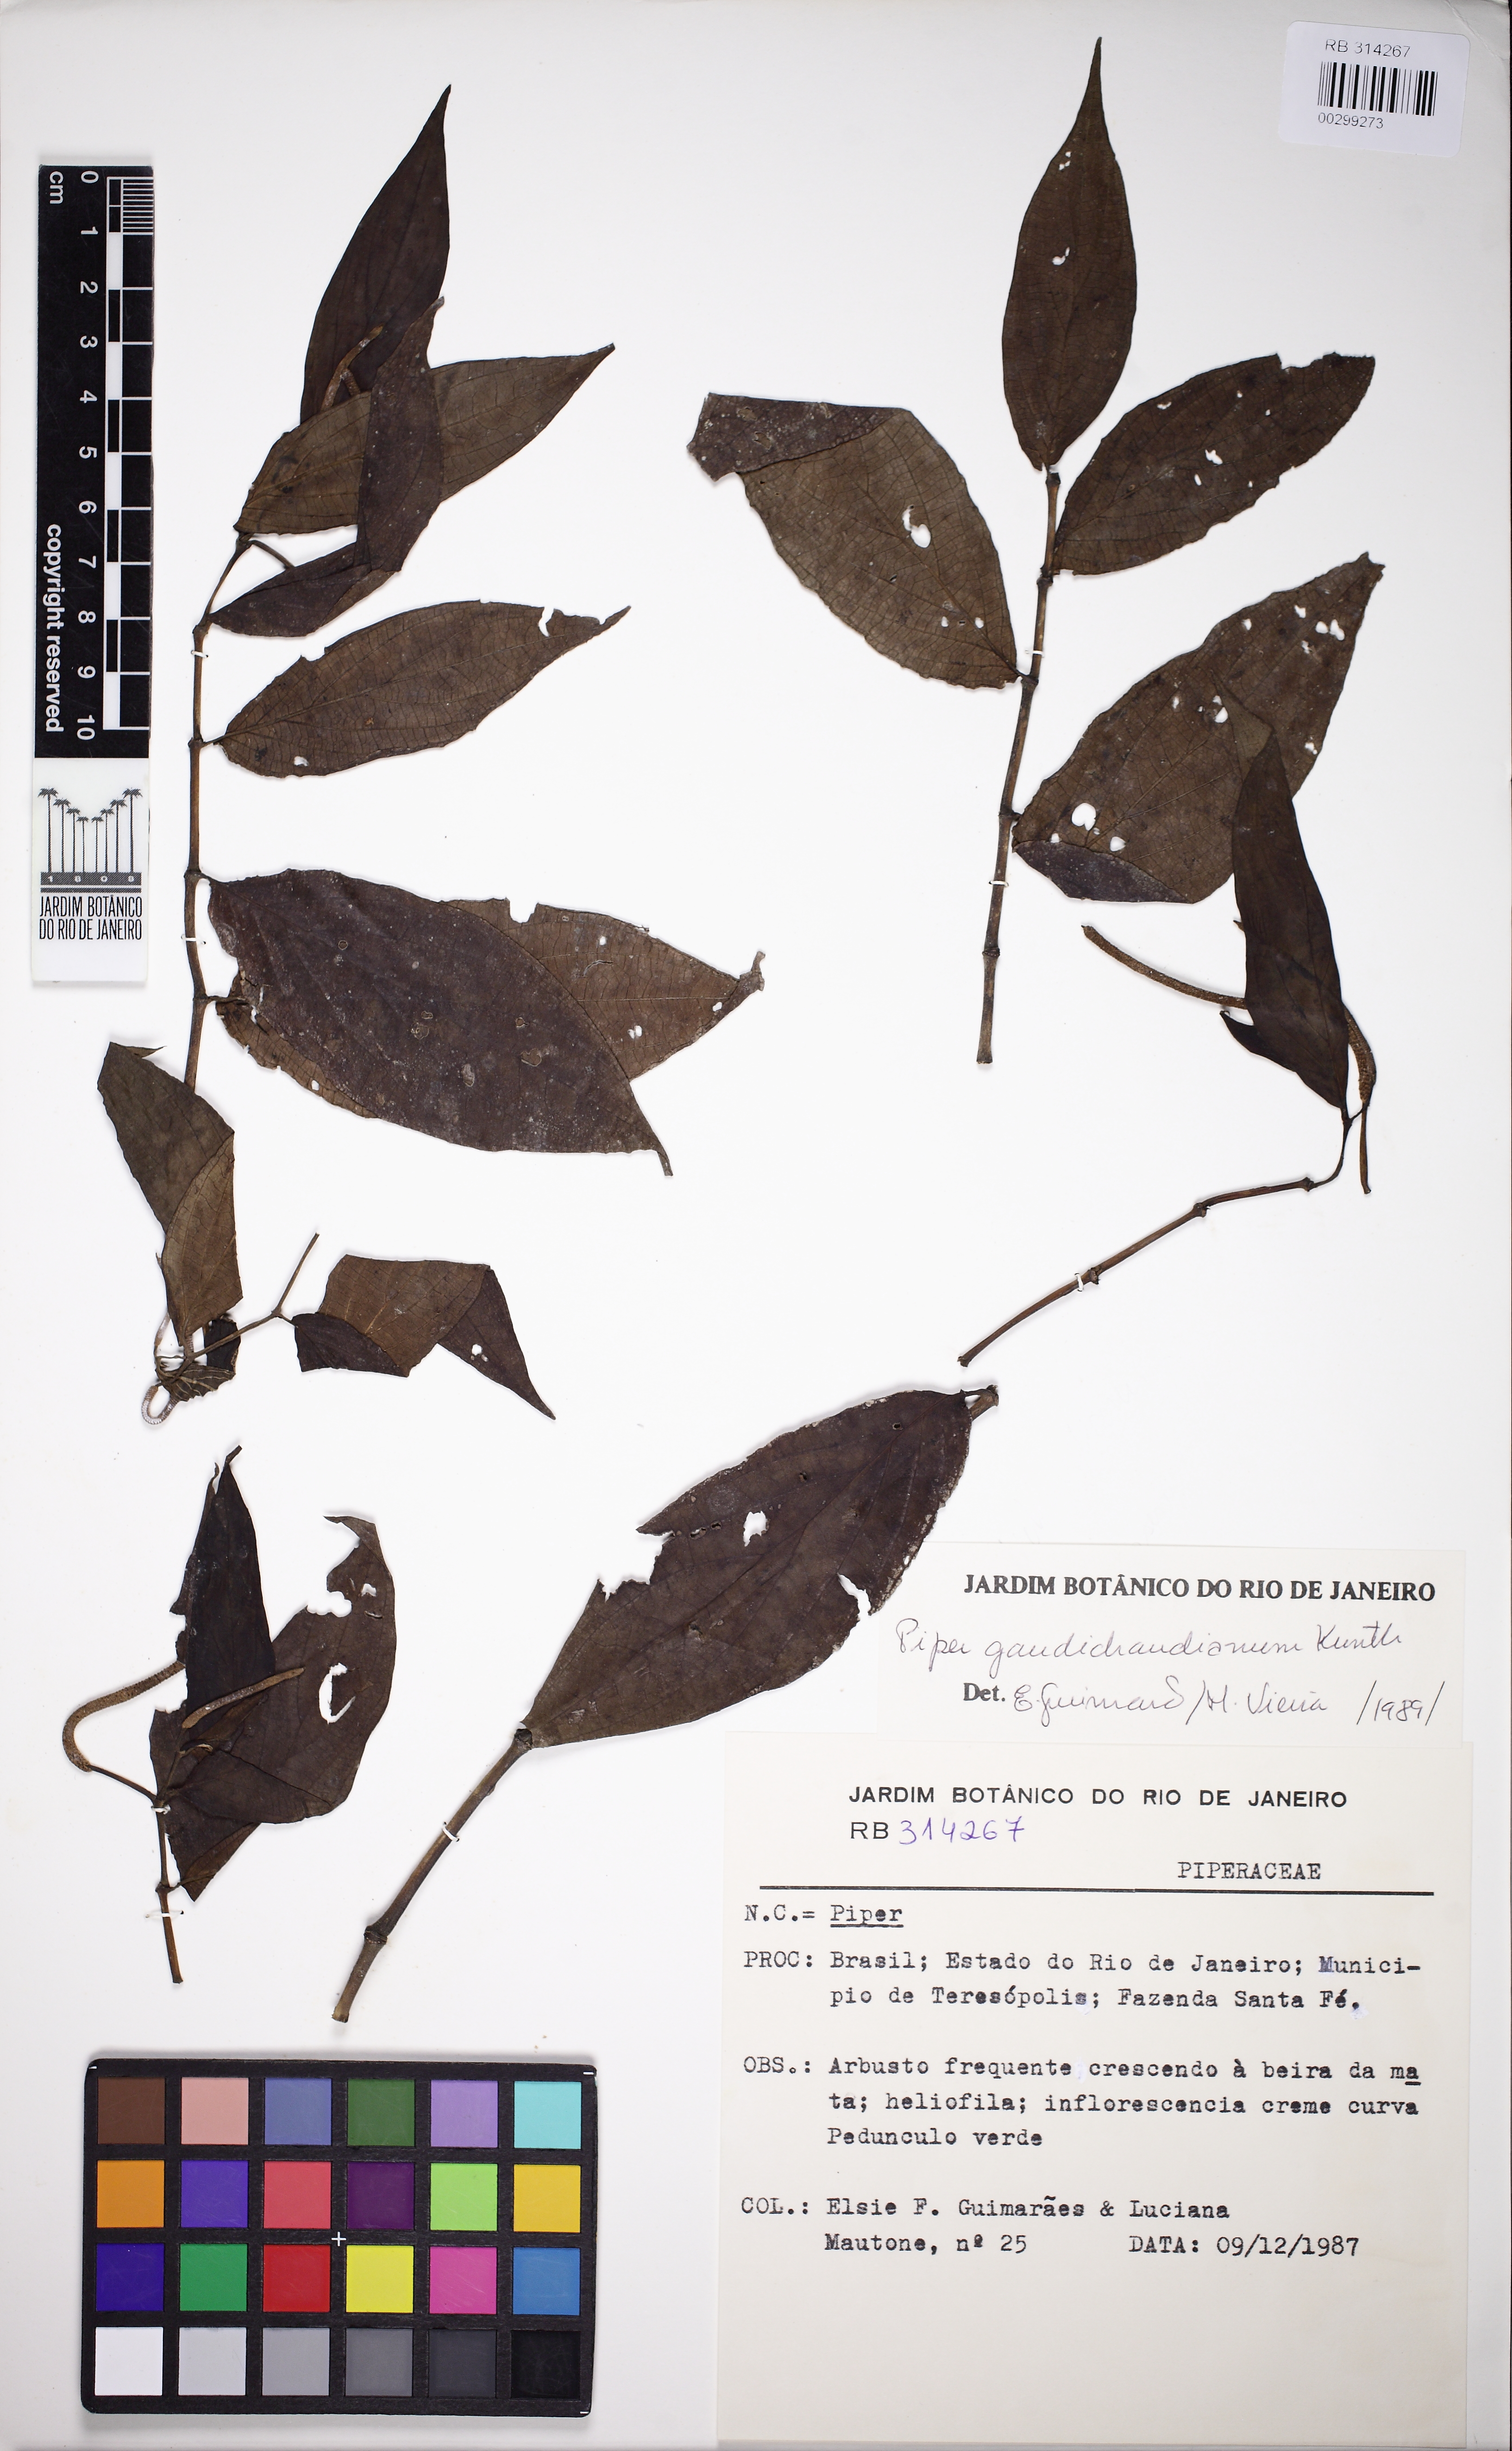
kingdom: Plantae
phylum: Tracheophyta
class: Magnoliopsida
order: Piperales
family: Piperaceae
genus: Piper
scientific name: Piper gaudichaudianum
